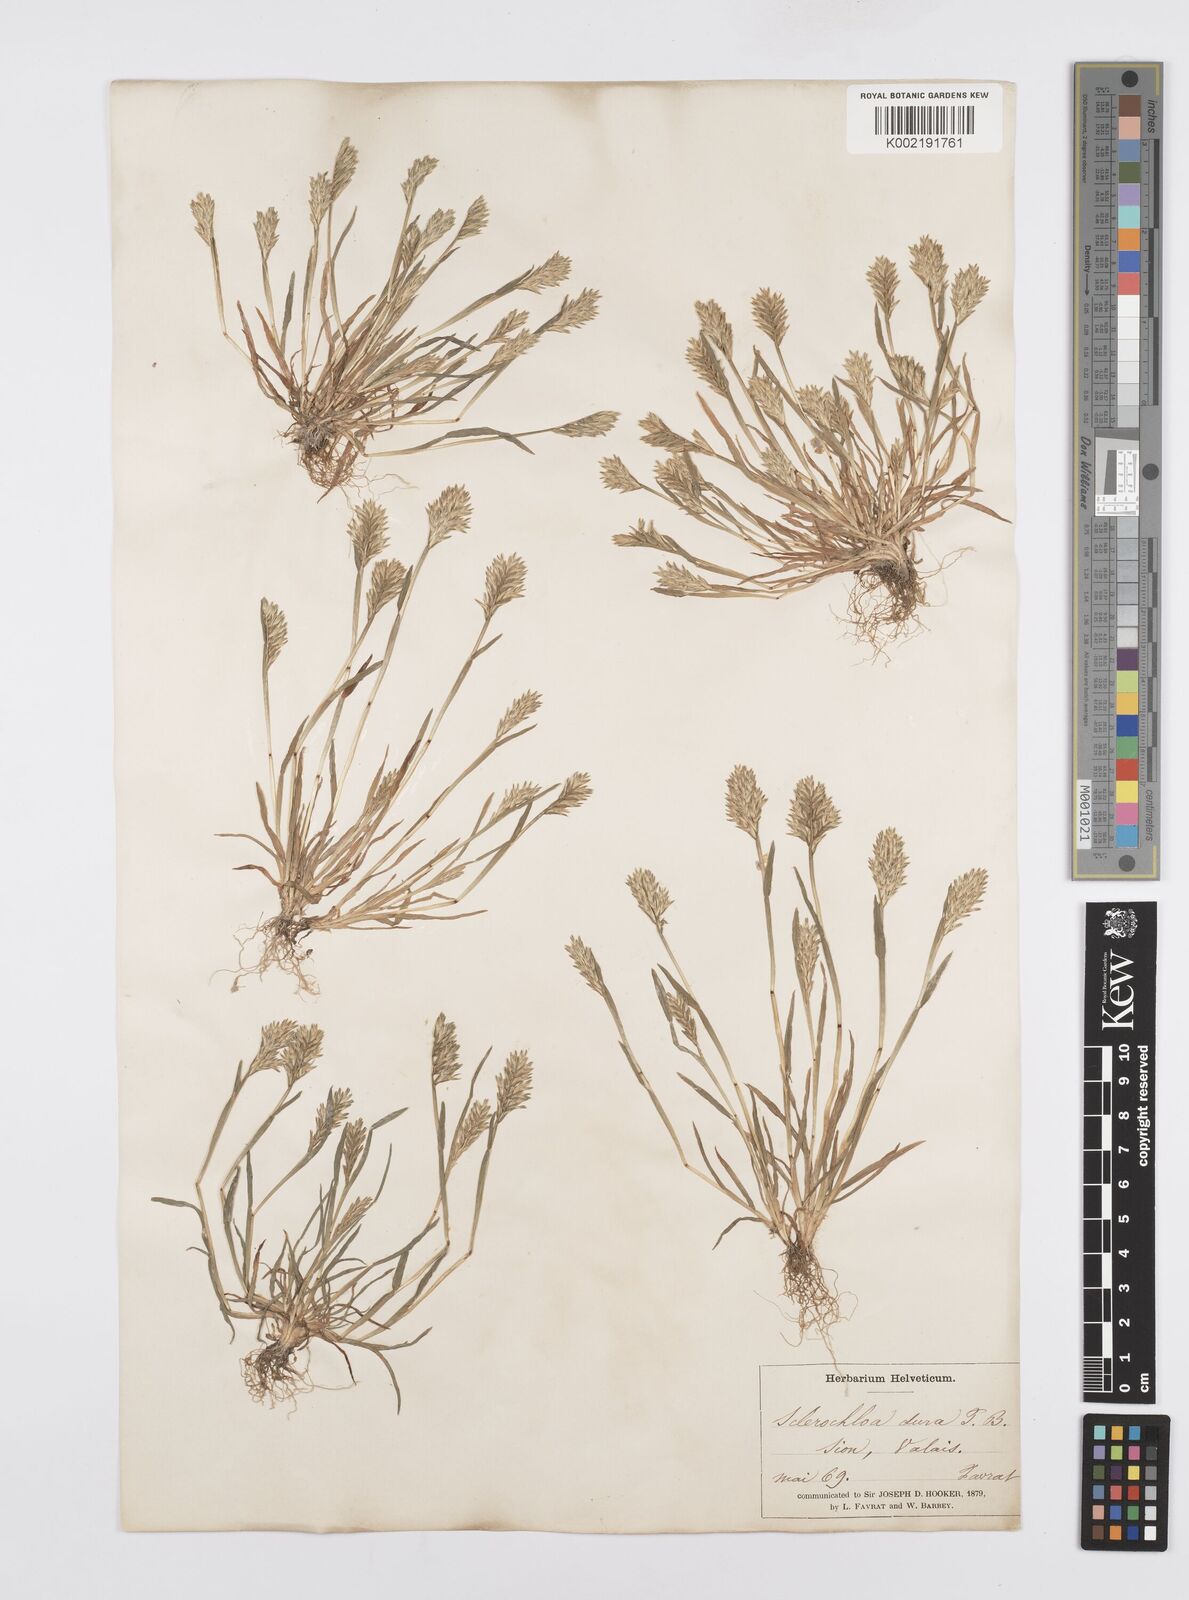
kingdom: Plantae
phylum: Tracheophyta
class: Liliopsida
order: Poales
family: Poaceae
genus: Sclerochloa
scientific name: Sclerochloa dura
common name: Common hardgrass
